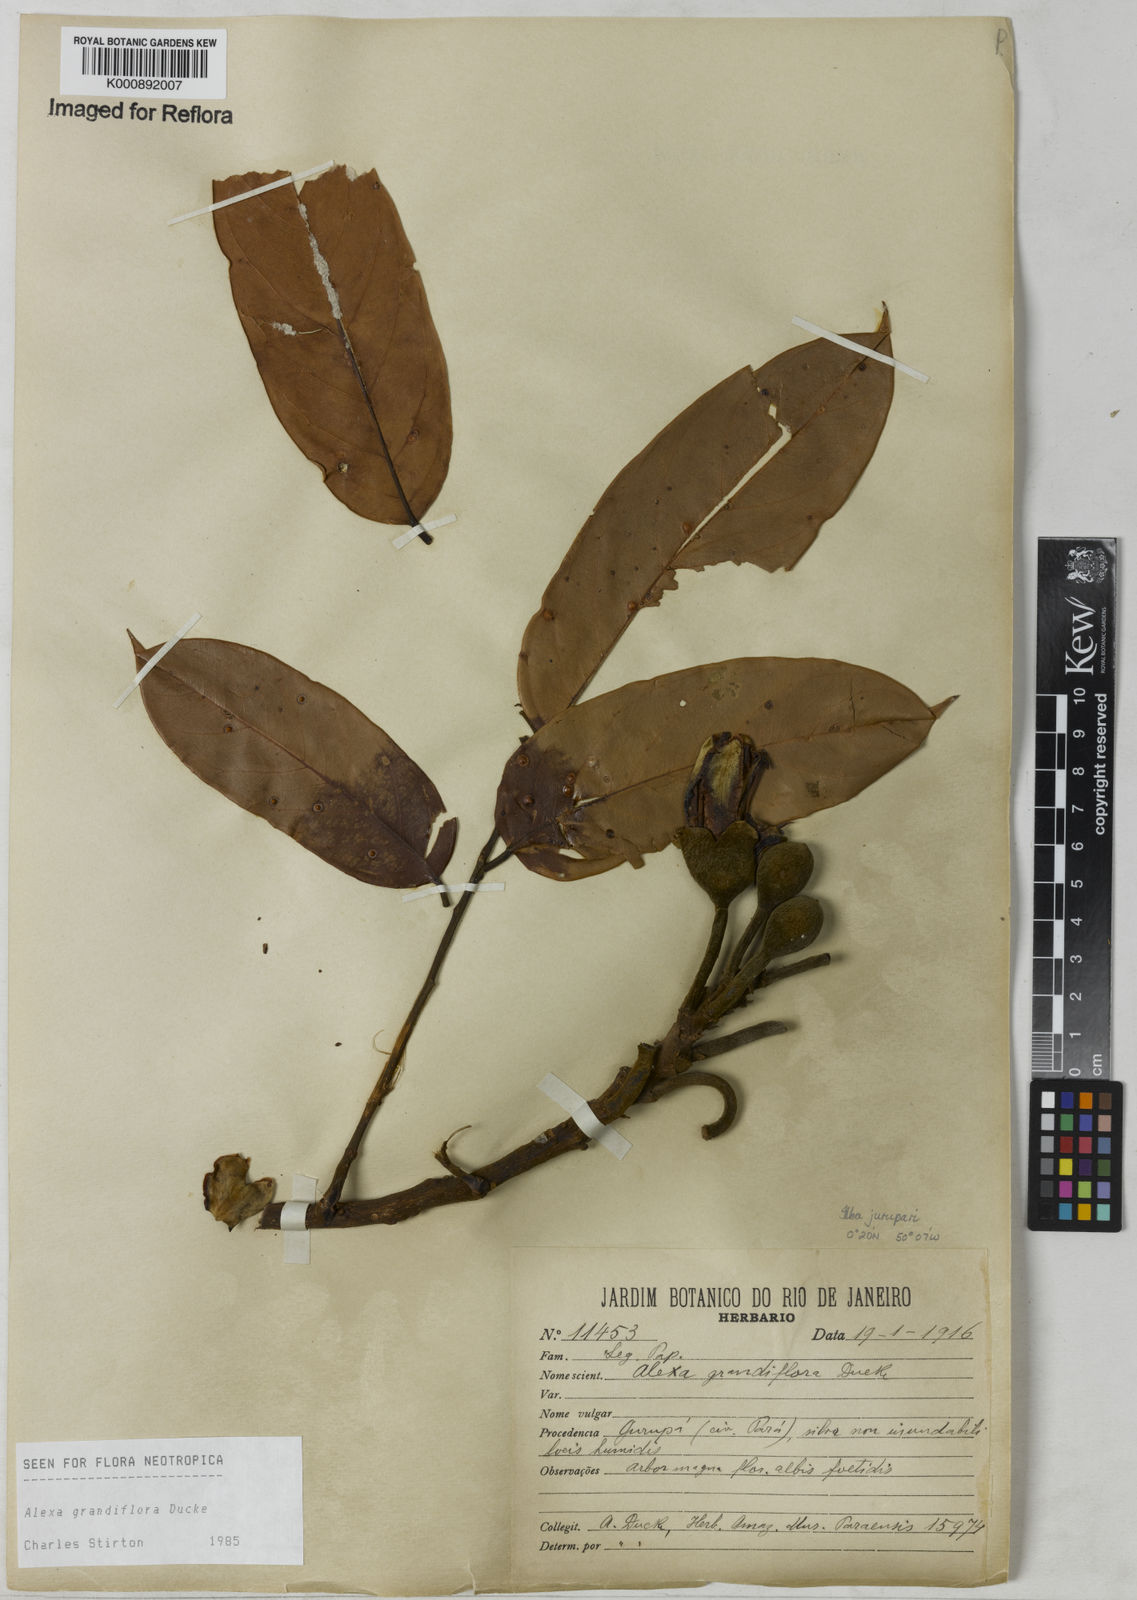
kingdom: Plantae
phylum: Tracheophyta
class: Magnoliopsida
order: Fabales
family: Fabaceae
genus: Alexa
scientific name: Alexa grandiflora
